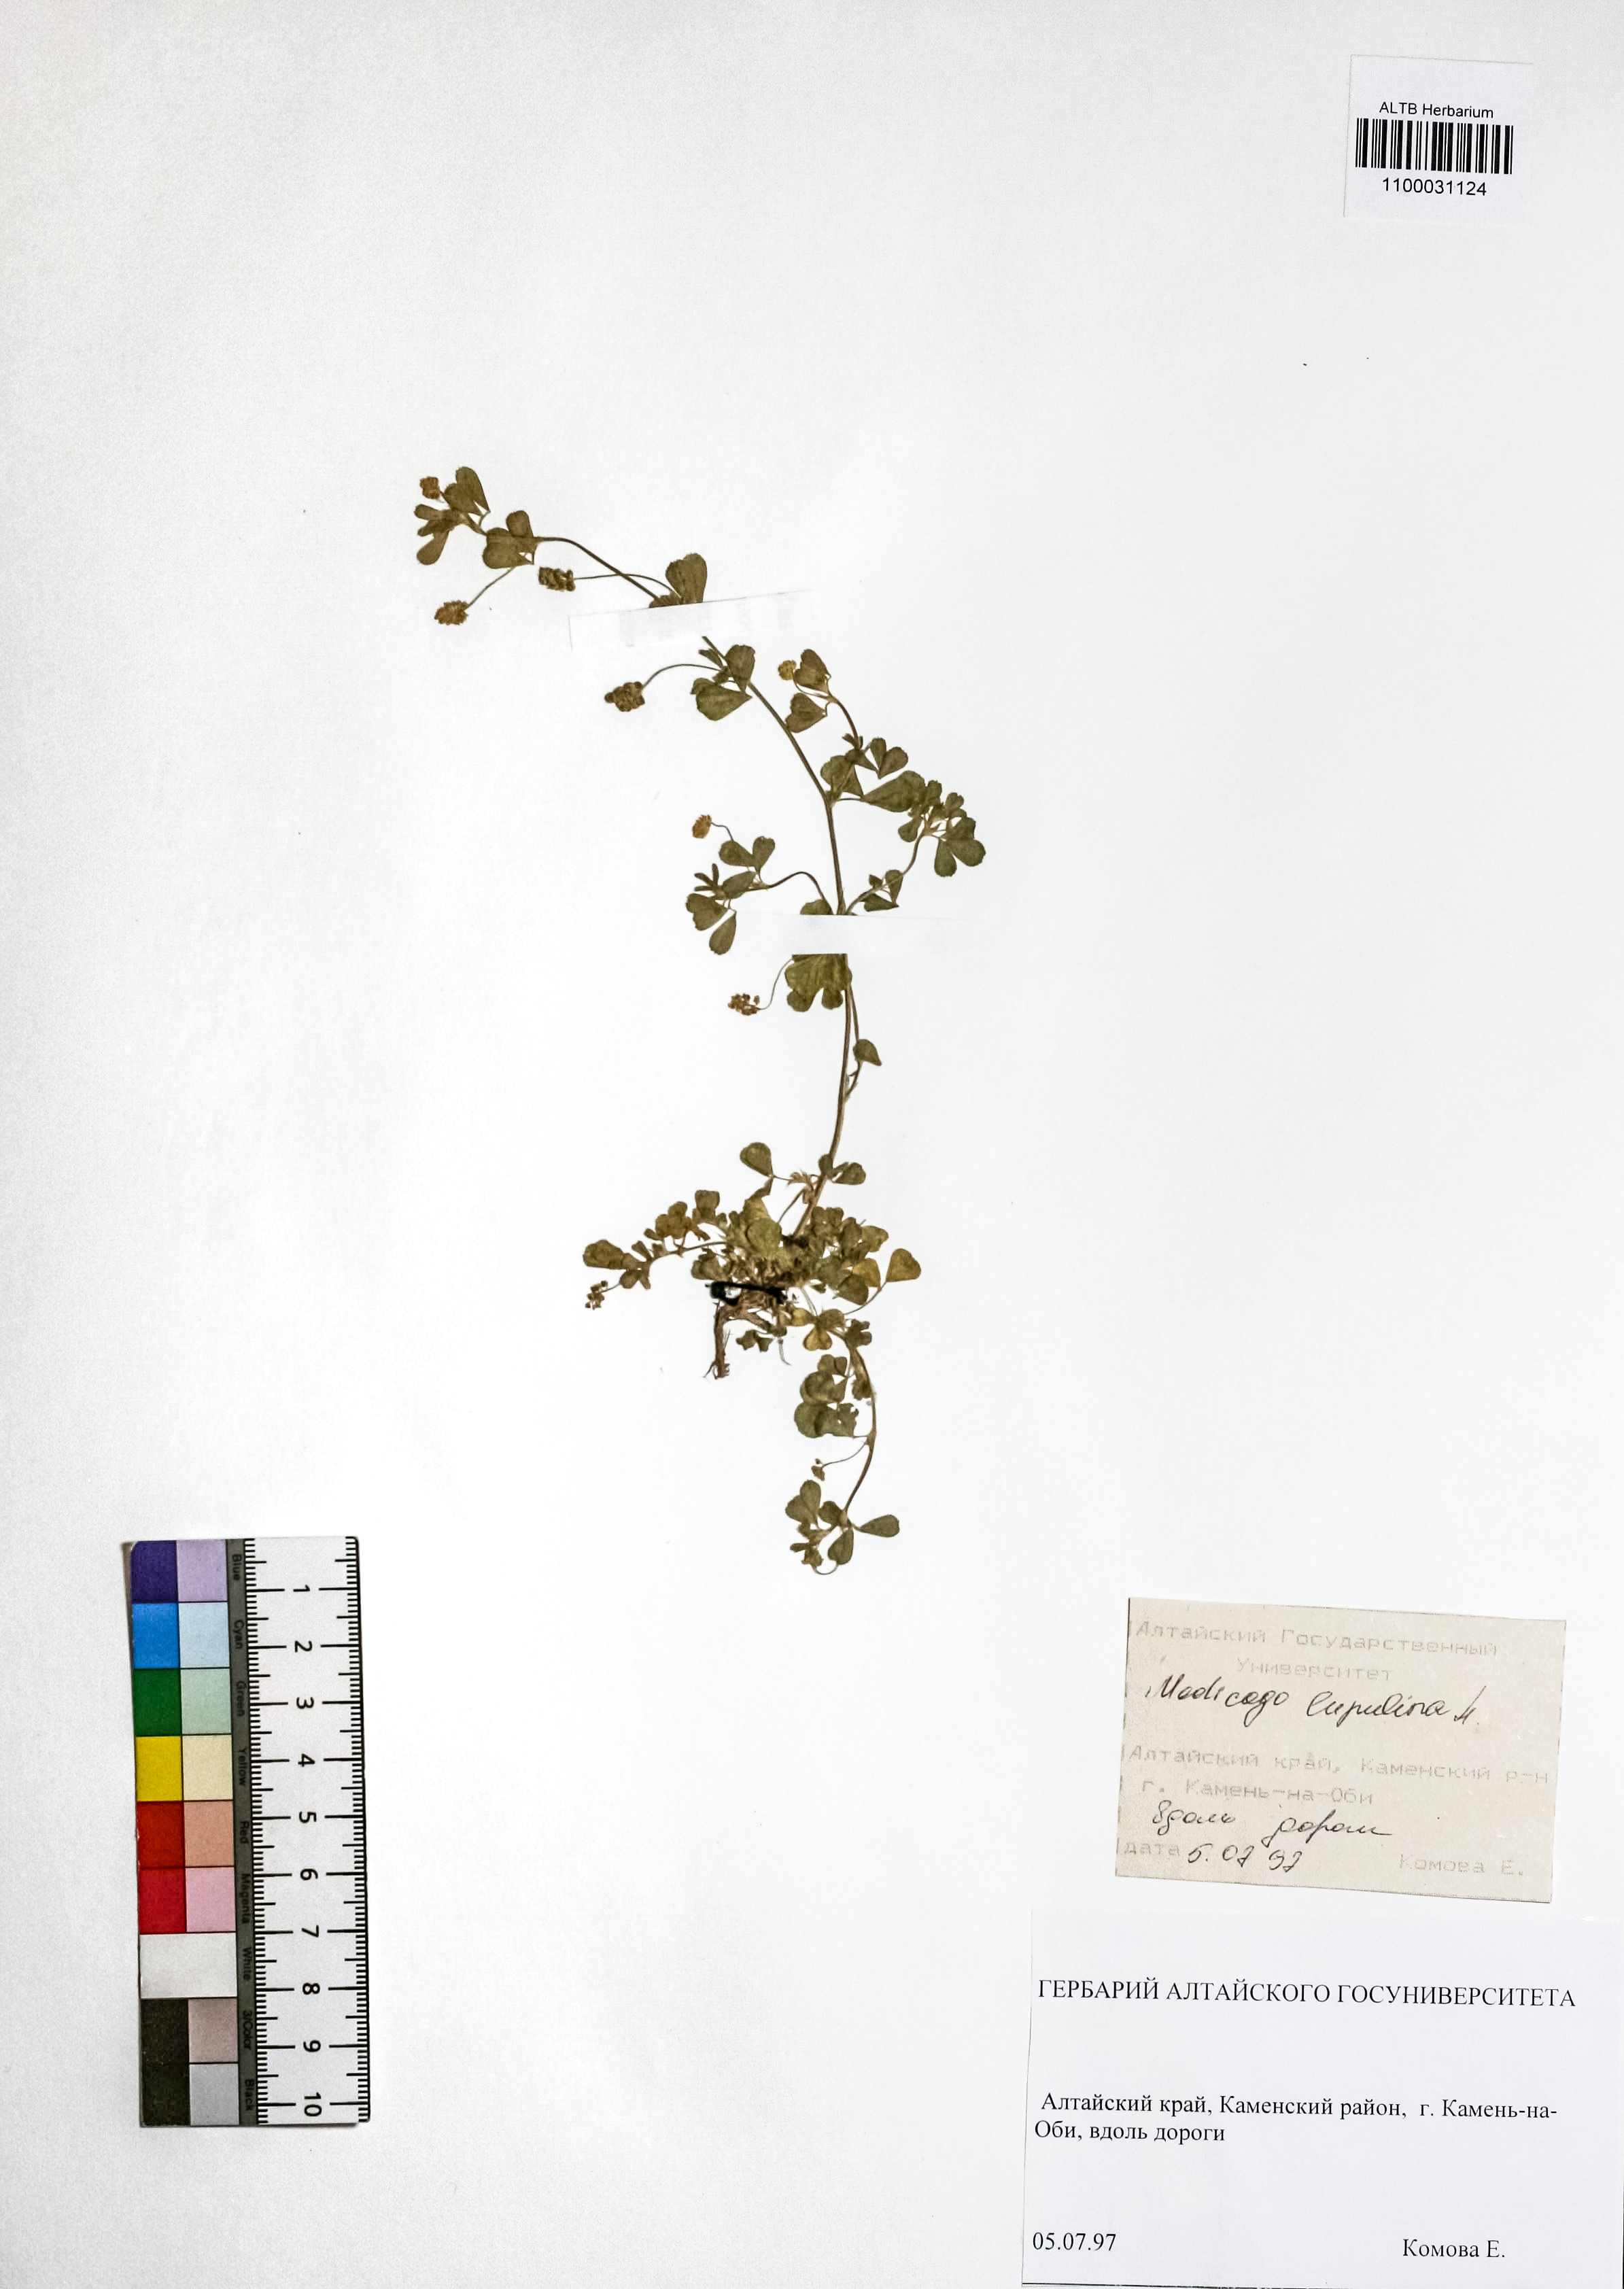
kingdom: Plantae
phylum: Tracheophyta
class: Magnoliopsida
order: Fabales
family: Fabaceae
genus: Medicago
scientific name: Medicago lupulina
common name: Black medick
